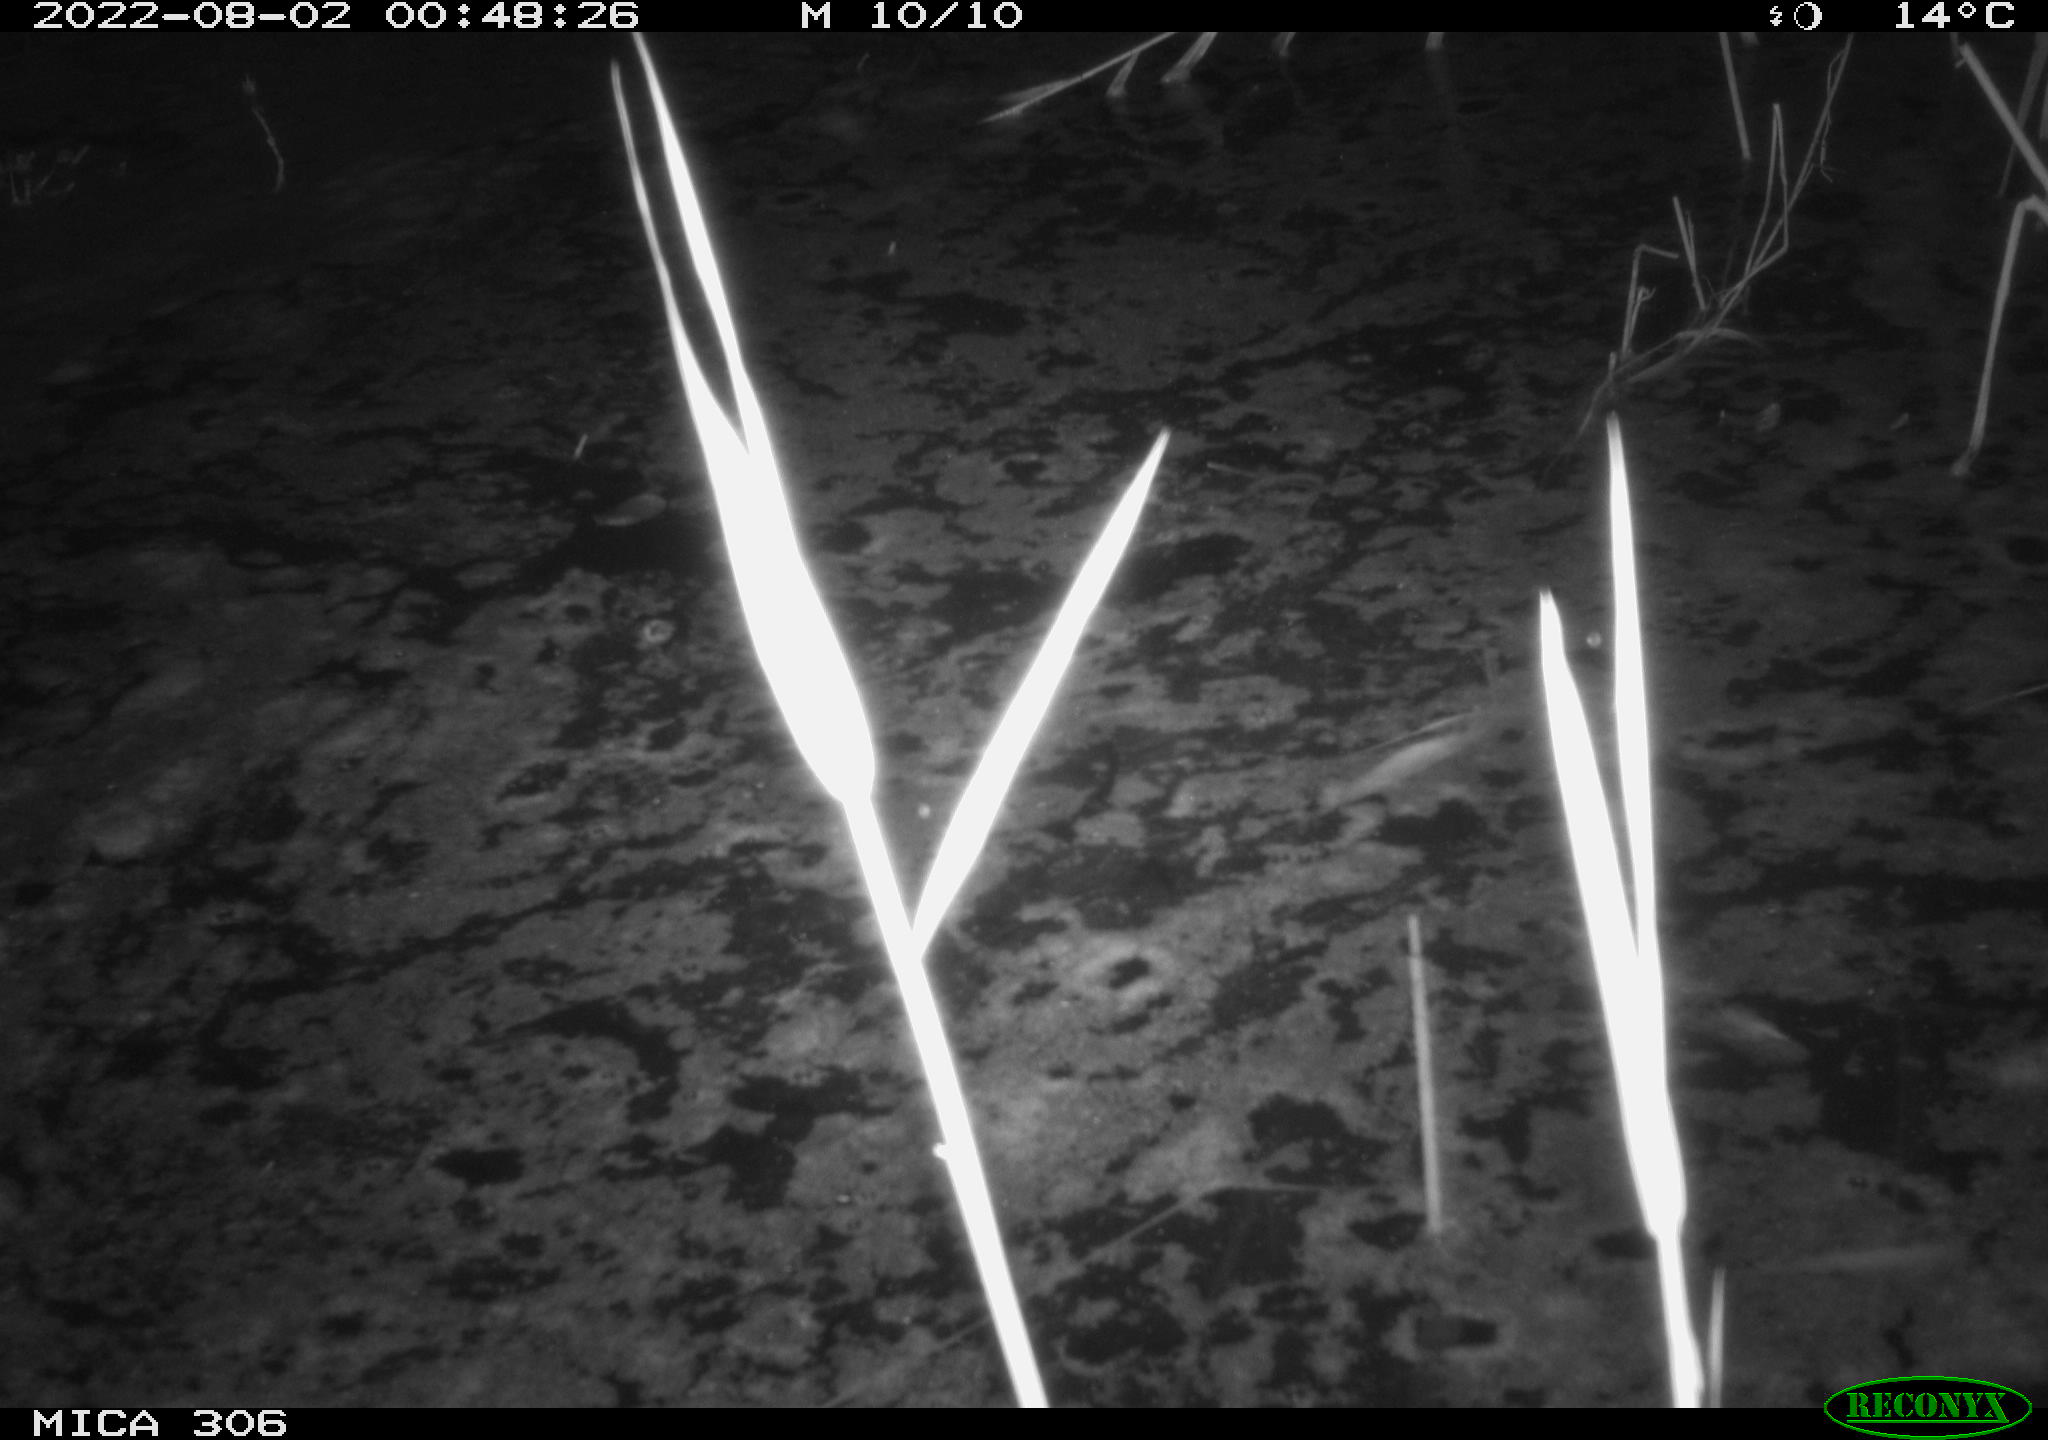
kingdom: Animalia
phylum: Chordata
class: Mammalia
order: Rodentia
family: Cricetidae
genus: Ondatra
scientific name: Ondatra zibethicus
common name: Muskrat
